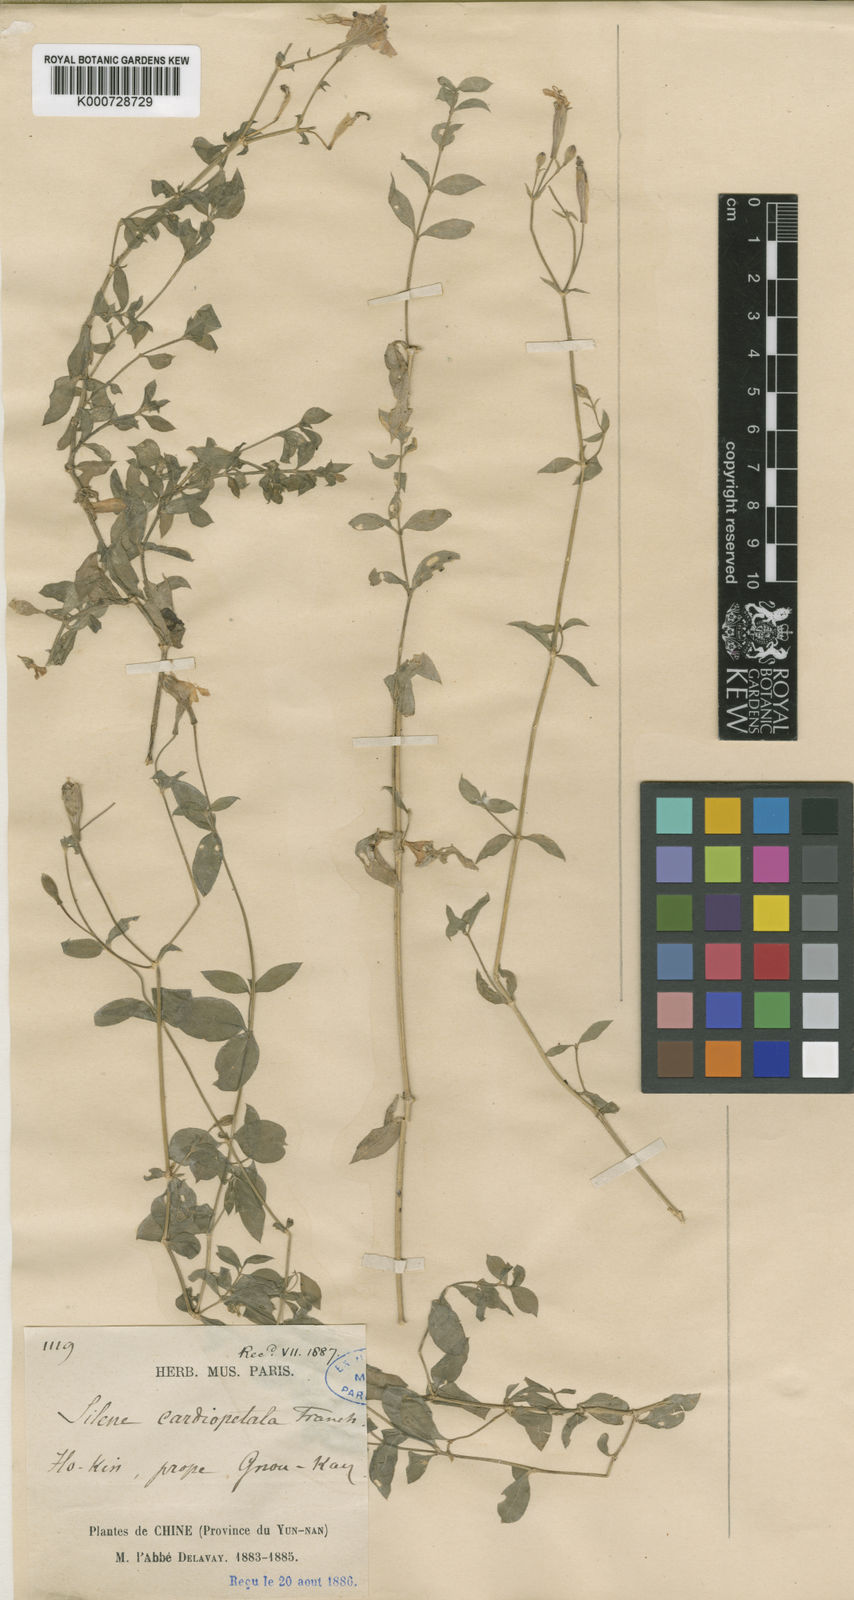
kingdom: Plantae
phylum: Tracheophyta
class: Magnoliopsida
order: Caryophyllales
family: Caryophyllaceae
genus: Silene
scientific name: Silene cardiopetala
